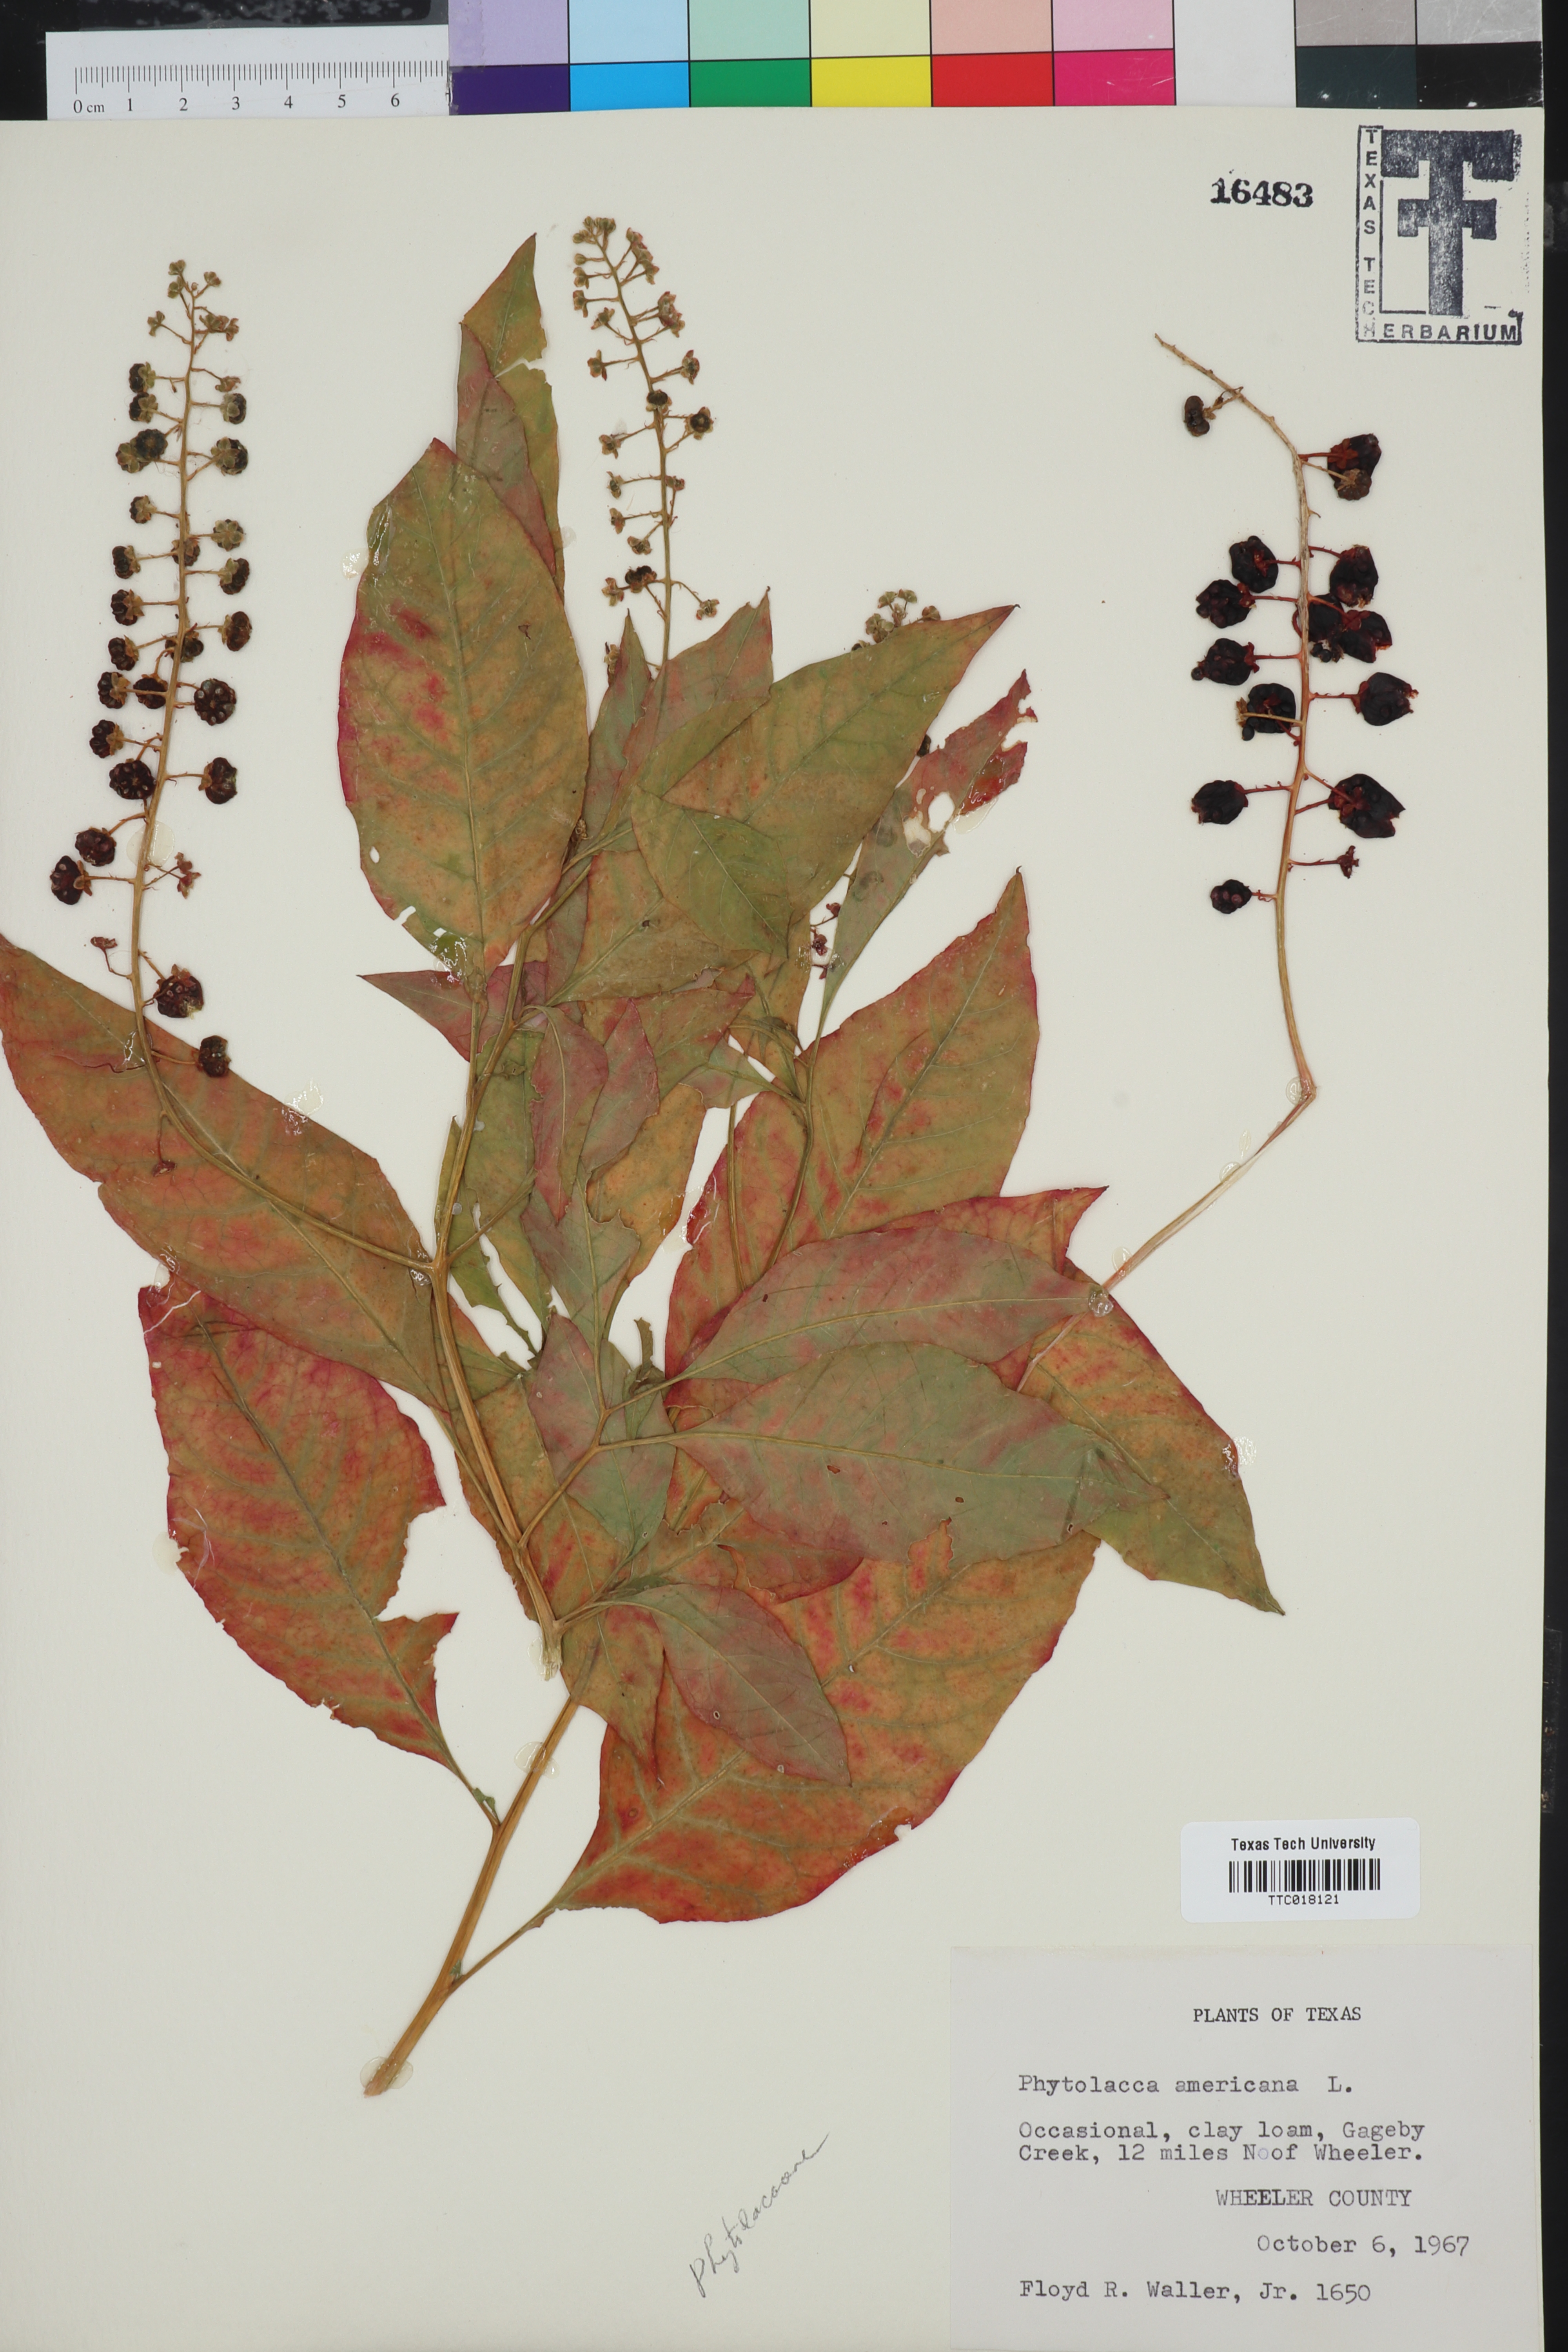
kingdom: Plantae
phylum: Tracheophyta
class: Magnoliopsida
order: Caryophyllales
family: Phytolaccaceae
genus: Phytolacca
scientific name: Phytolacca americana
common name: American pokeweed
